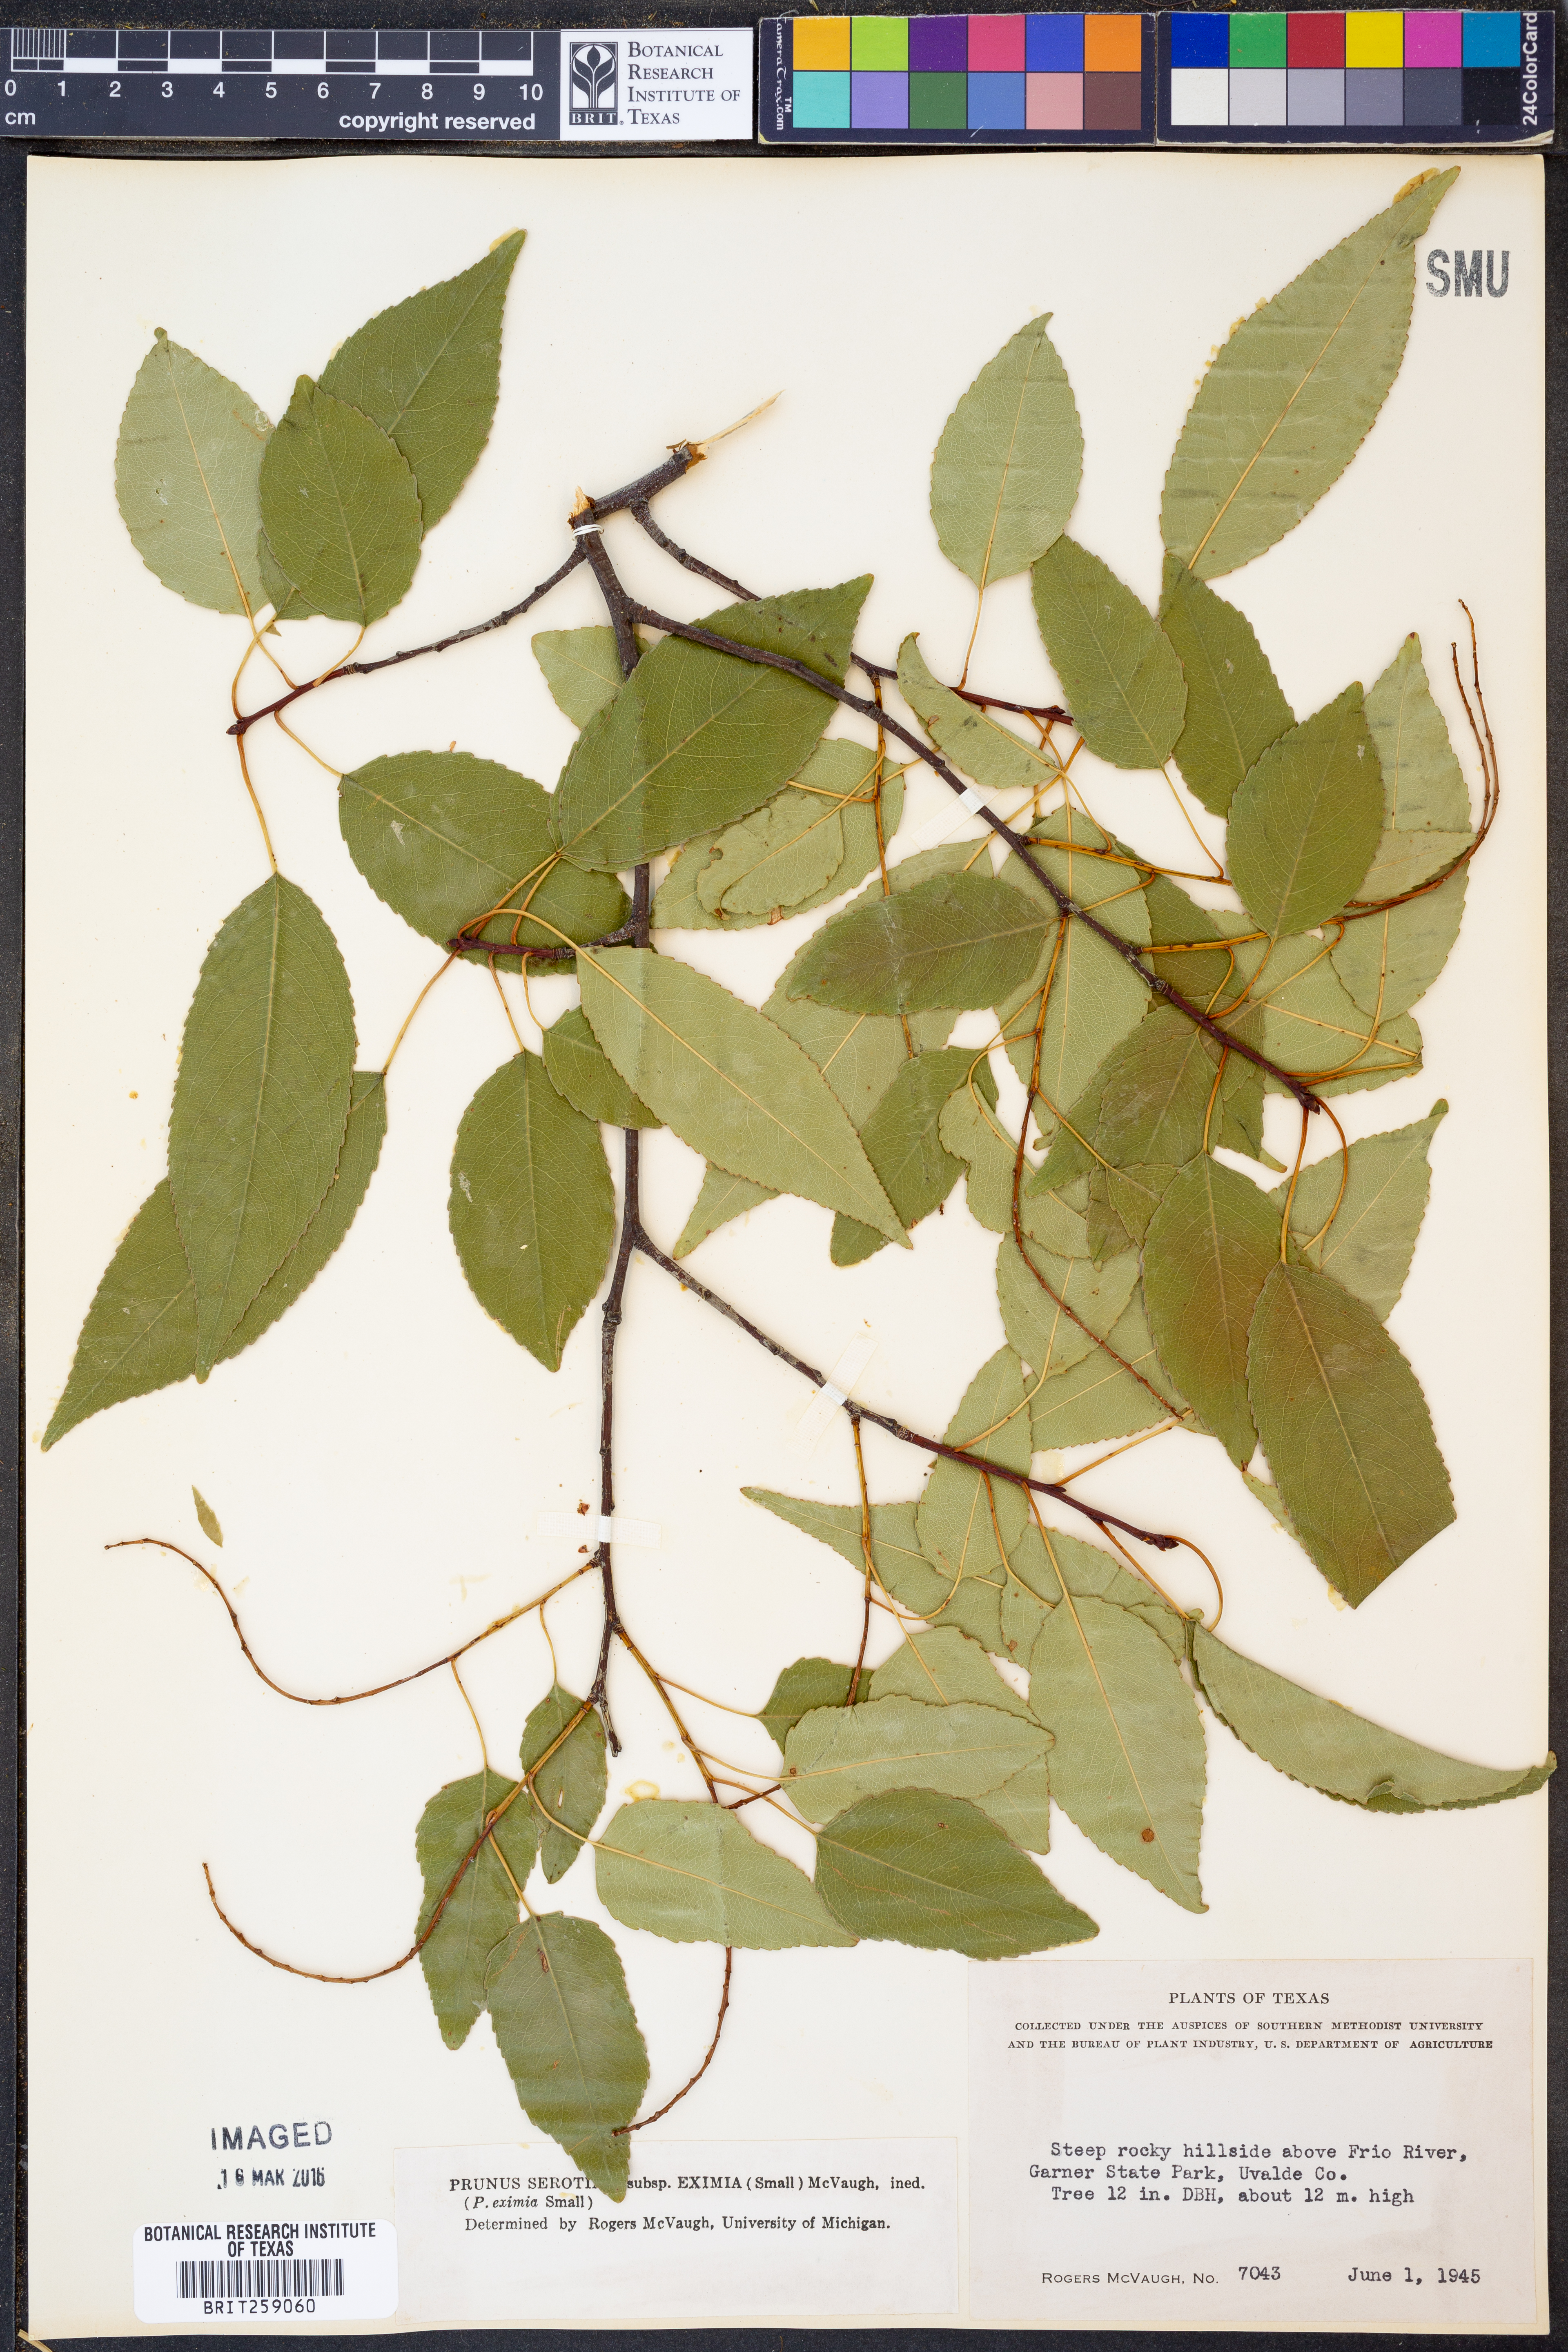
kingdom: Plantae
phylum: Tracheophyta
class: Magnoliopsida
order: Rosales
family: Rosaceae
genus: Prunus
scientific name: Prunus serotina
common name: Black cherry
